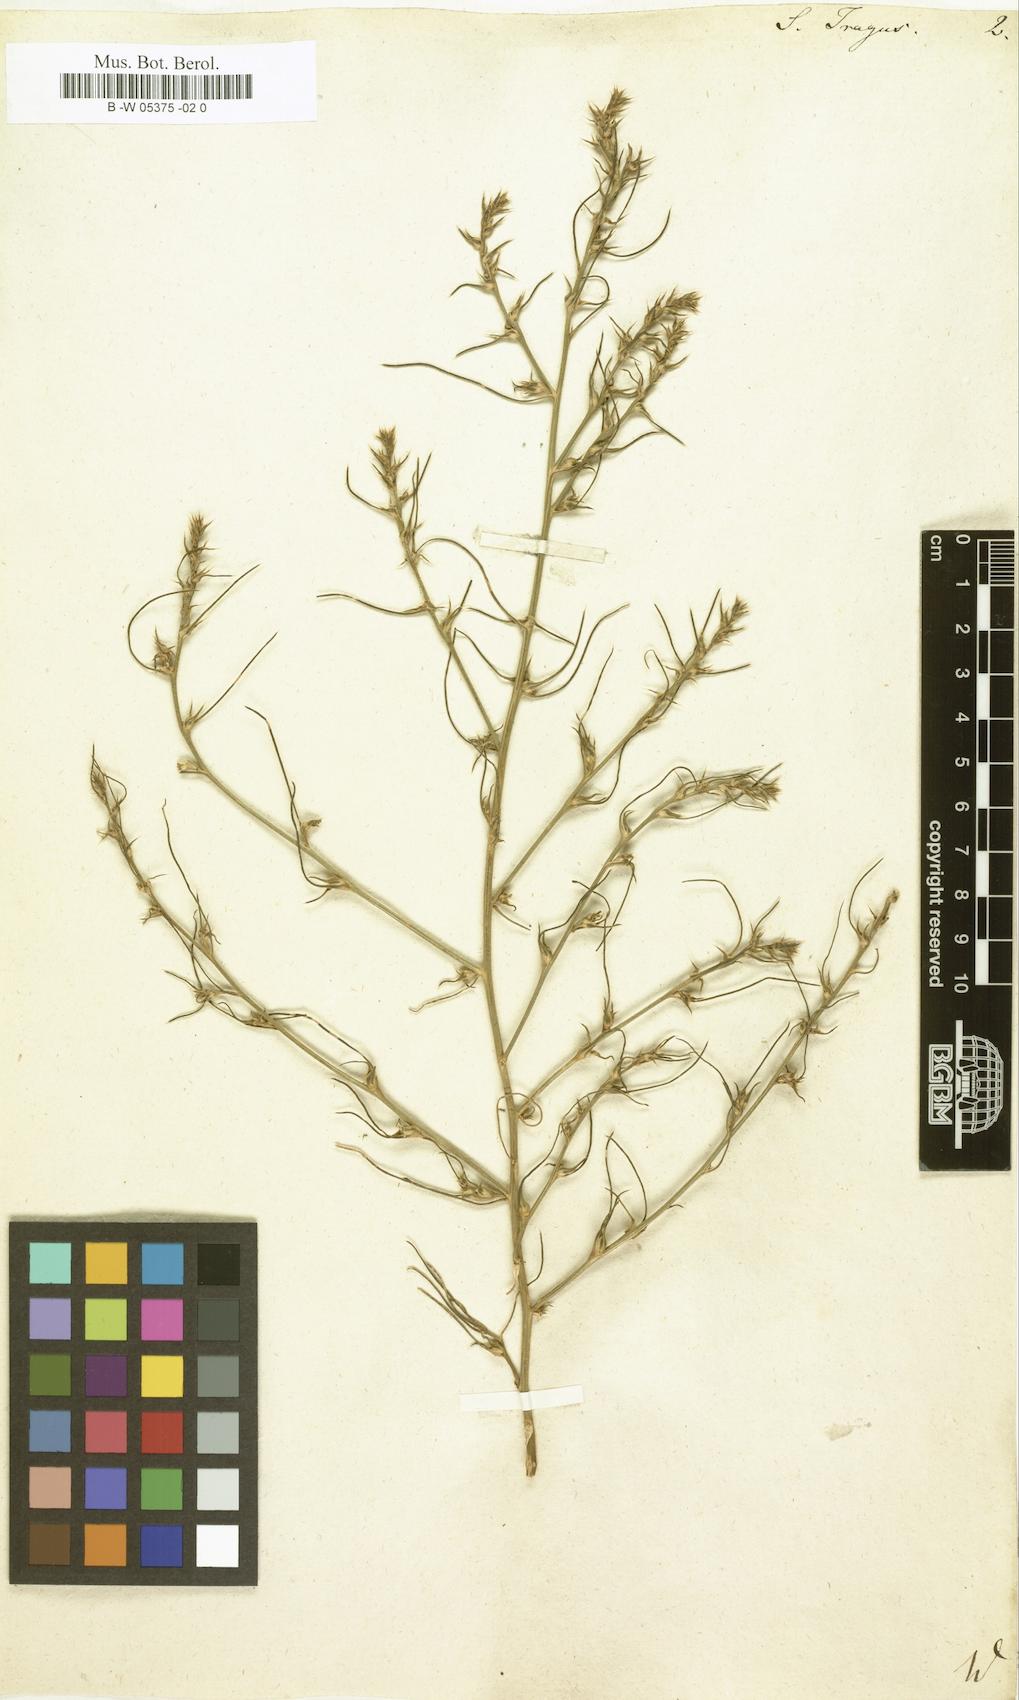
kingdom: Plantae
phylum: Tracheophyta
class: Magnoliopsida
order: Caryophyllales
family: Amaranthaceae
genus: Salsola
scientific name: Salsola tragus
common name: Prickly russian thistle
